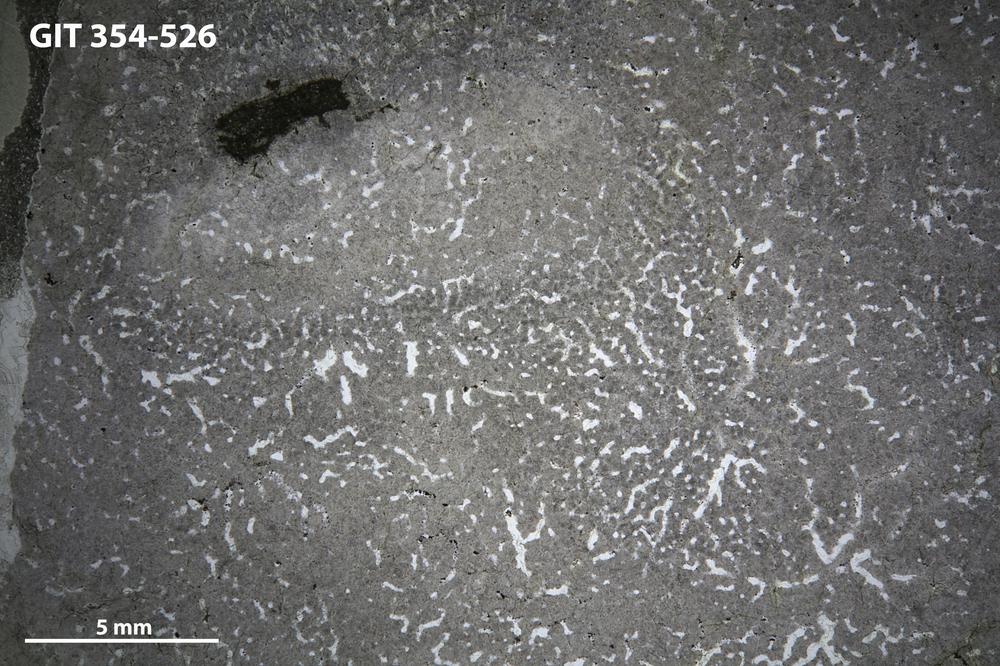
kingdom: Animalia
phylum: Porifera
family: Stromatoporidae
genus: Eostromatopora
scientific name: Eostromatopora
